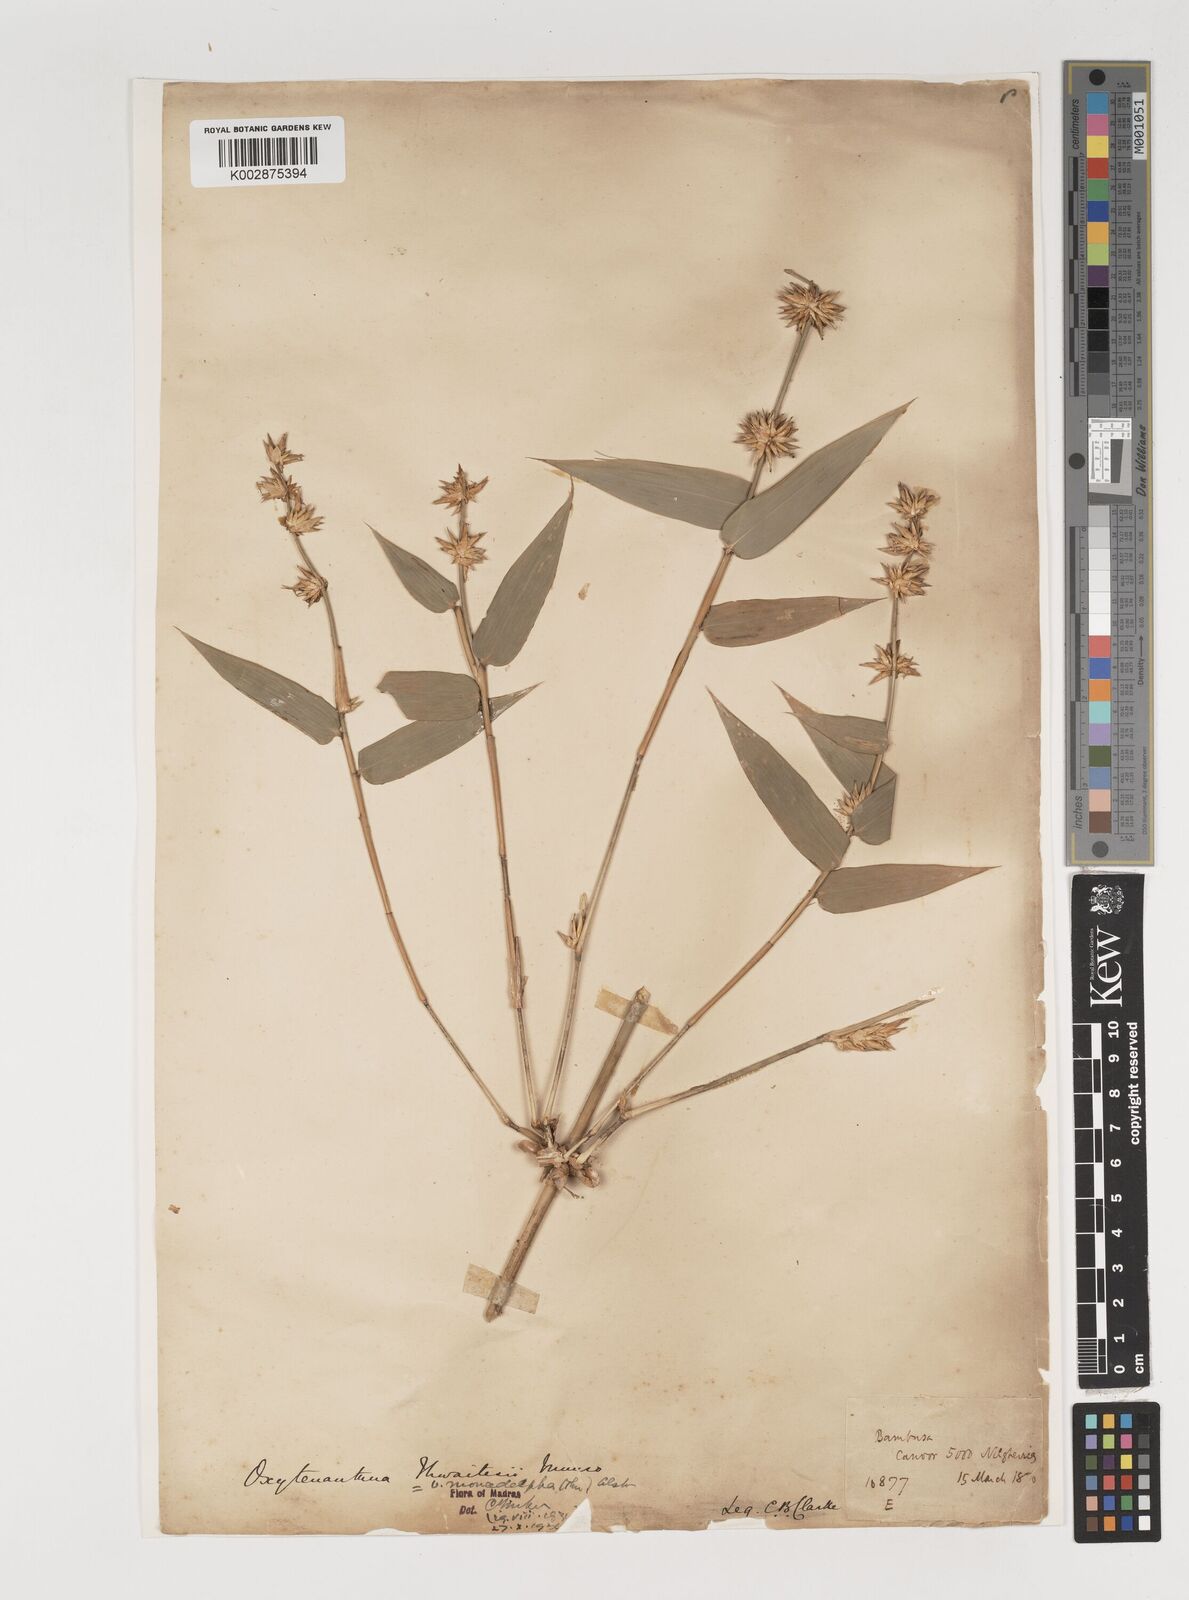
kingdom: Plantae
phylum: Tracheophyta
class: Liliopsida
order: Poales
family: Poaceae
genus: Pseudoxytenanthera
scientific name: Pseudoxytenanthera monadelpha
